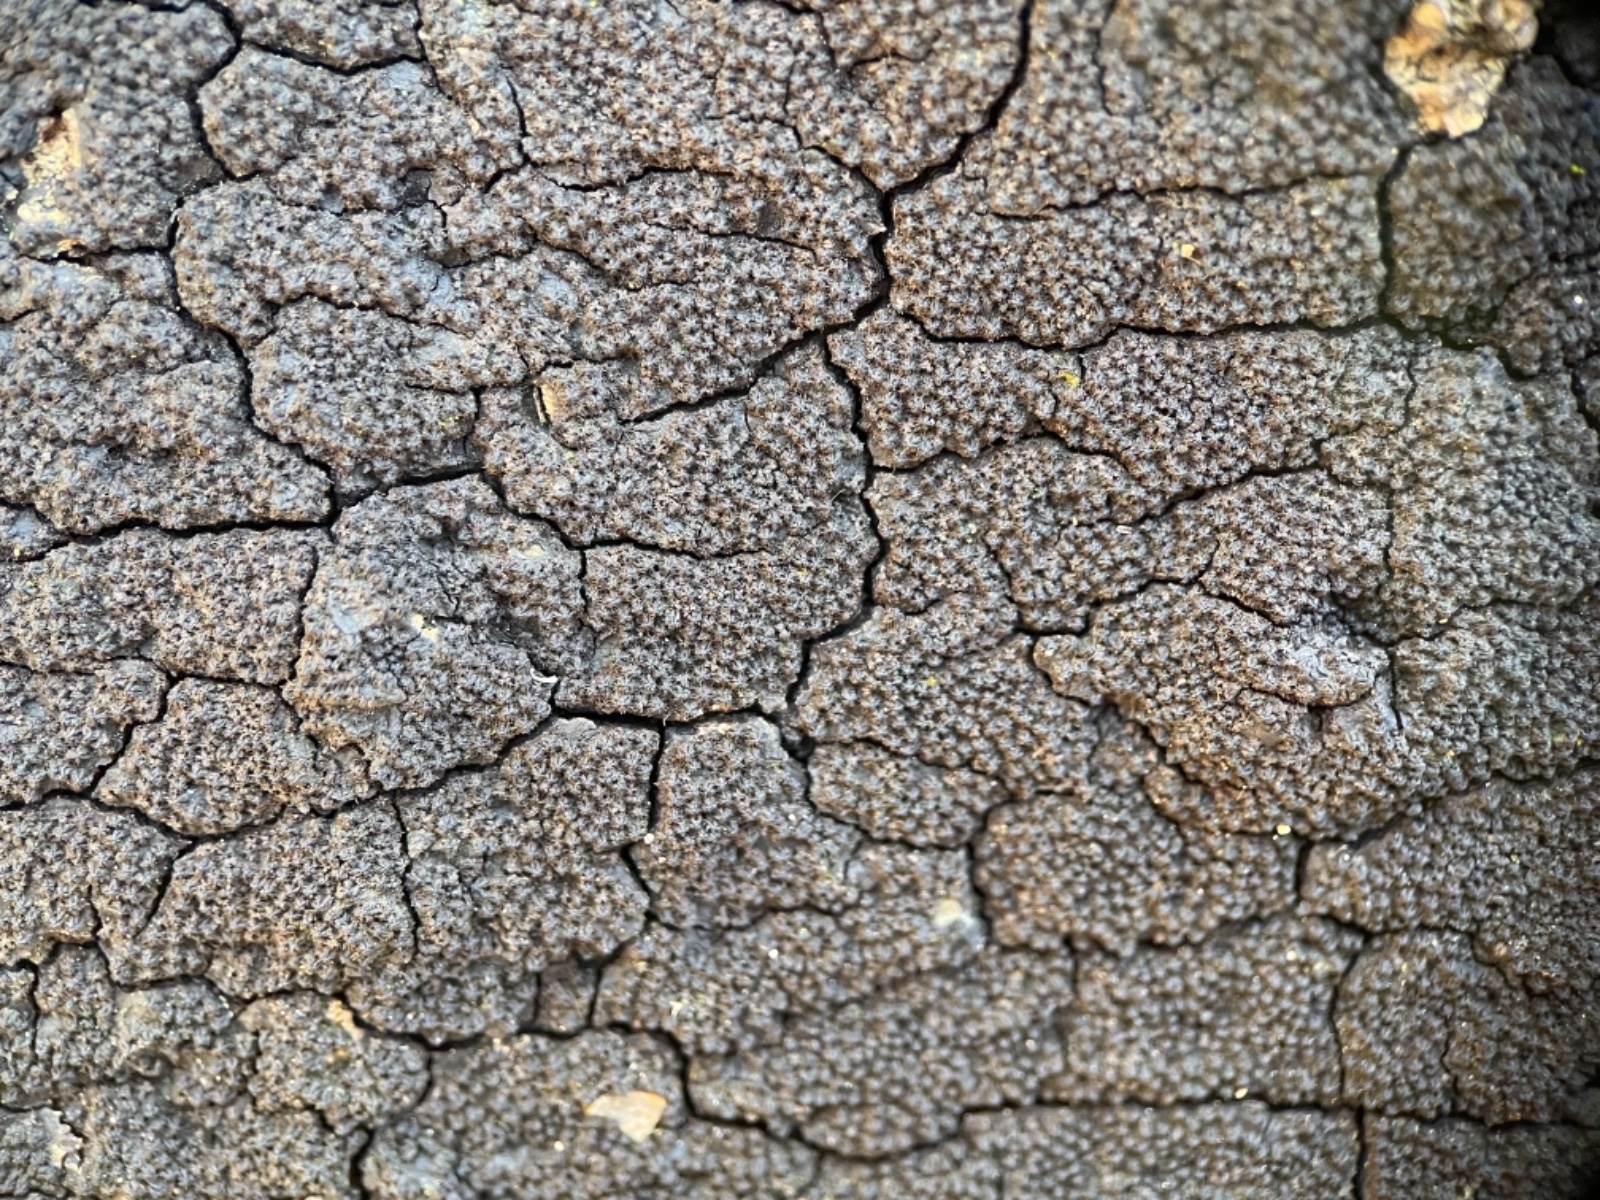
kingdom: Fungi
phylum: Ascomycota
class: Sordariomycetes
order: Xylariales
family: Diatrypaceae
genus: Eutypa
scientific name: Eutypa spinosa
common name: grov kulskorpe
